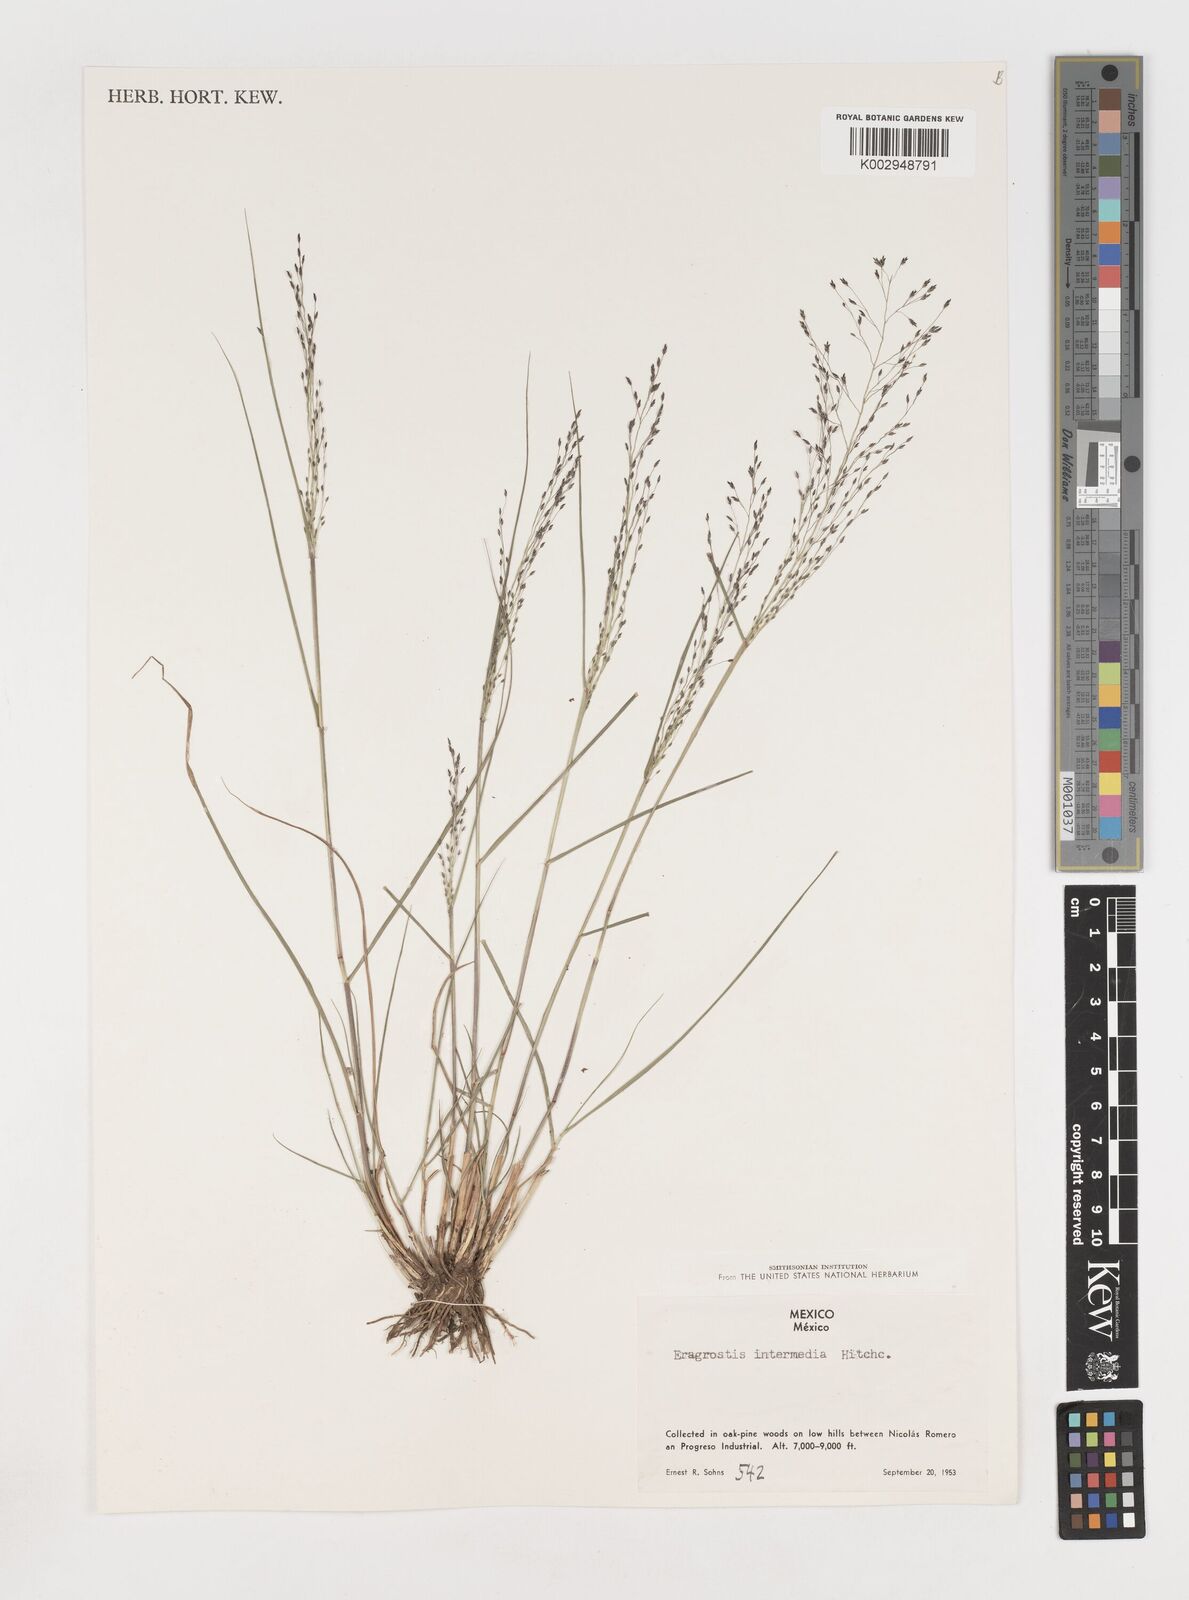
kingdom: Plantae
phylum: Tracheophyta
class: Liliopsida
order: Poales
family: Poaceae
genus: Eragrostis
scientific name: Eragrostis intermedia
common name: Plains love grass
